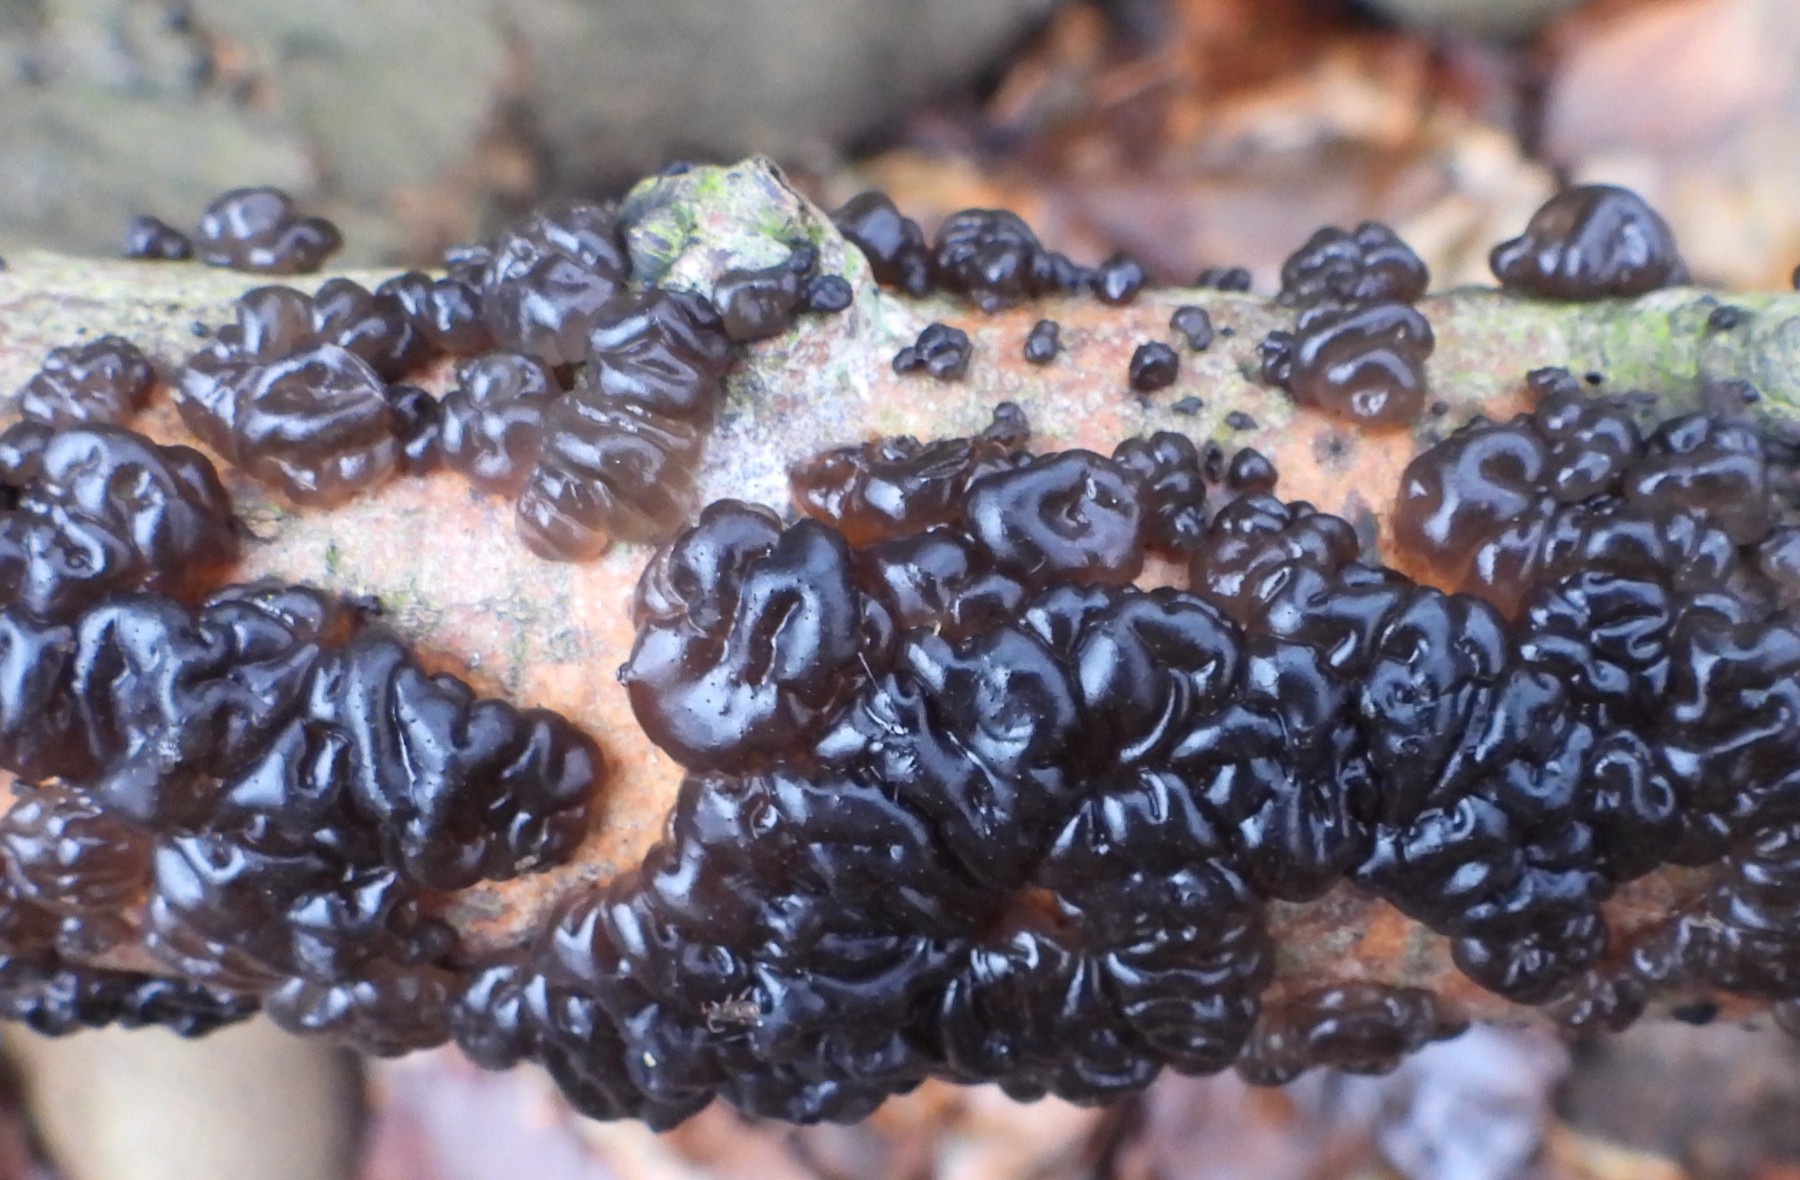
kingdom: Fungi
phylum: Basidiomycota
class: Agaricomycetes
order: Auriculariales
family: Auriculariaceae
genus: Exidia
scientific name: Exidia nigricans
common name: almindelig bævretop
